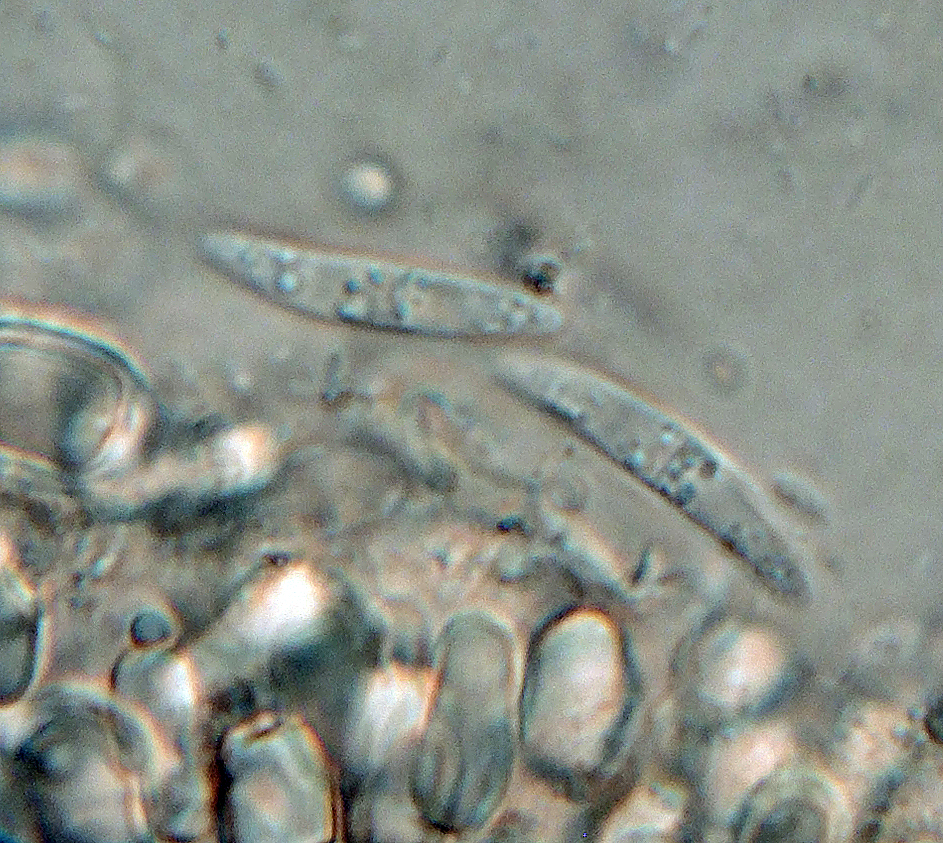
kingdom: Fungi
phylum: Ascomycota
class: Leotiomycetes
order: Helotiales
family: Pezizellaceae
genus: Micropeziza
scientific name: Micropeziza cornea
